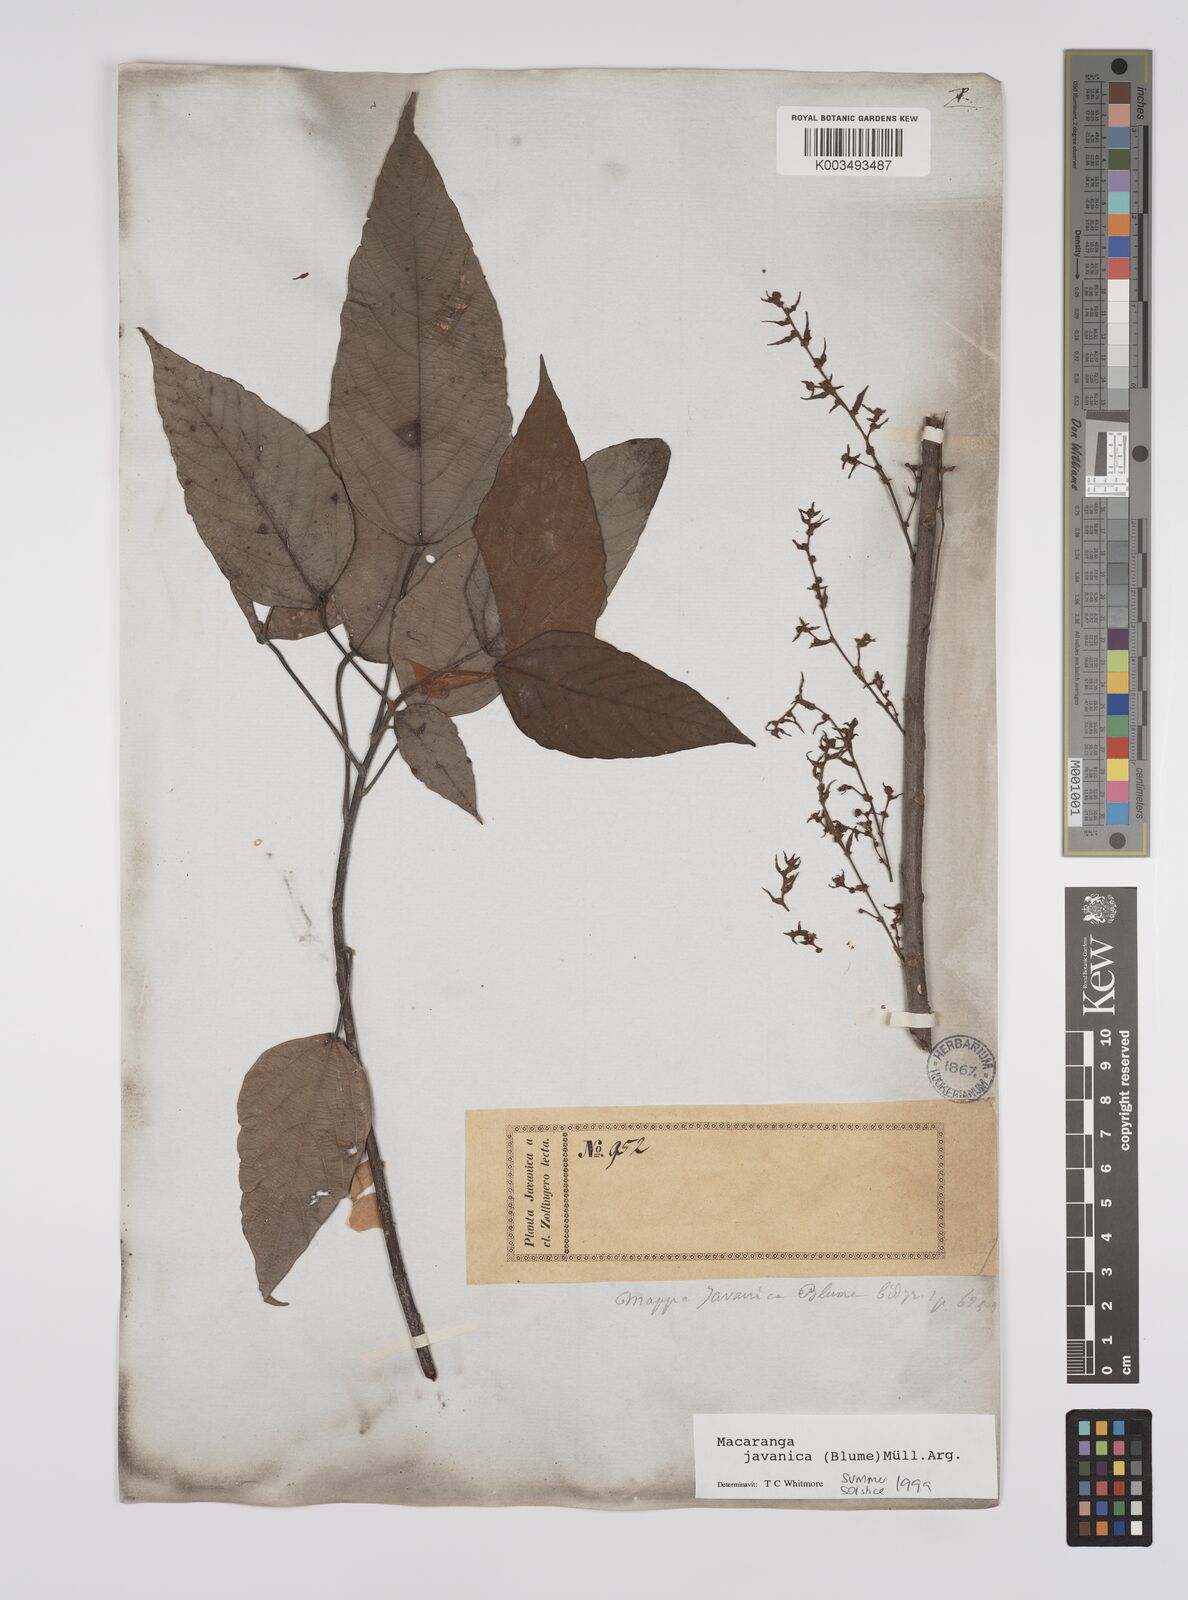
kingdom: Plantae
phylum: Tracheophyta
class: Magnoliopsida
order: Malpighiales
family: Euphorbiaceae
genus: Macaranga
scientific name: Macaranga javanica
